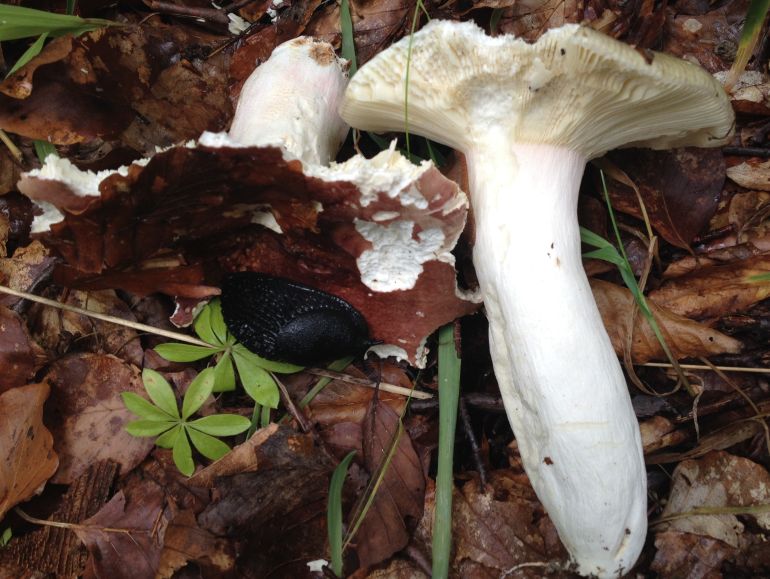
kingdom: Fungi
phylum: Basidiomycota
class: Agaricomycetes
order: Russulales
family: Russulaceae
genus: Russula
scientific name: Russula olivacea
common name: stor skørhat
